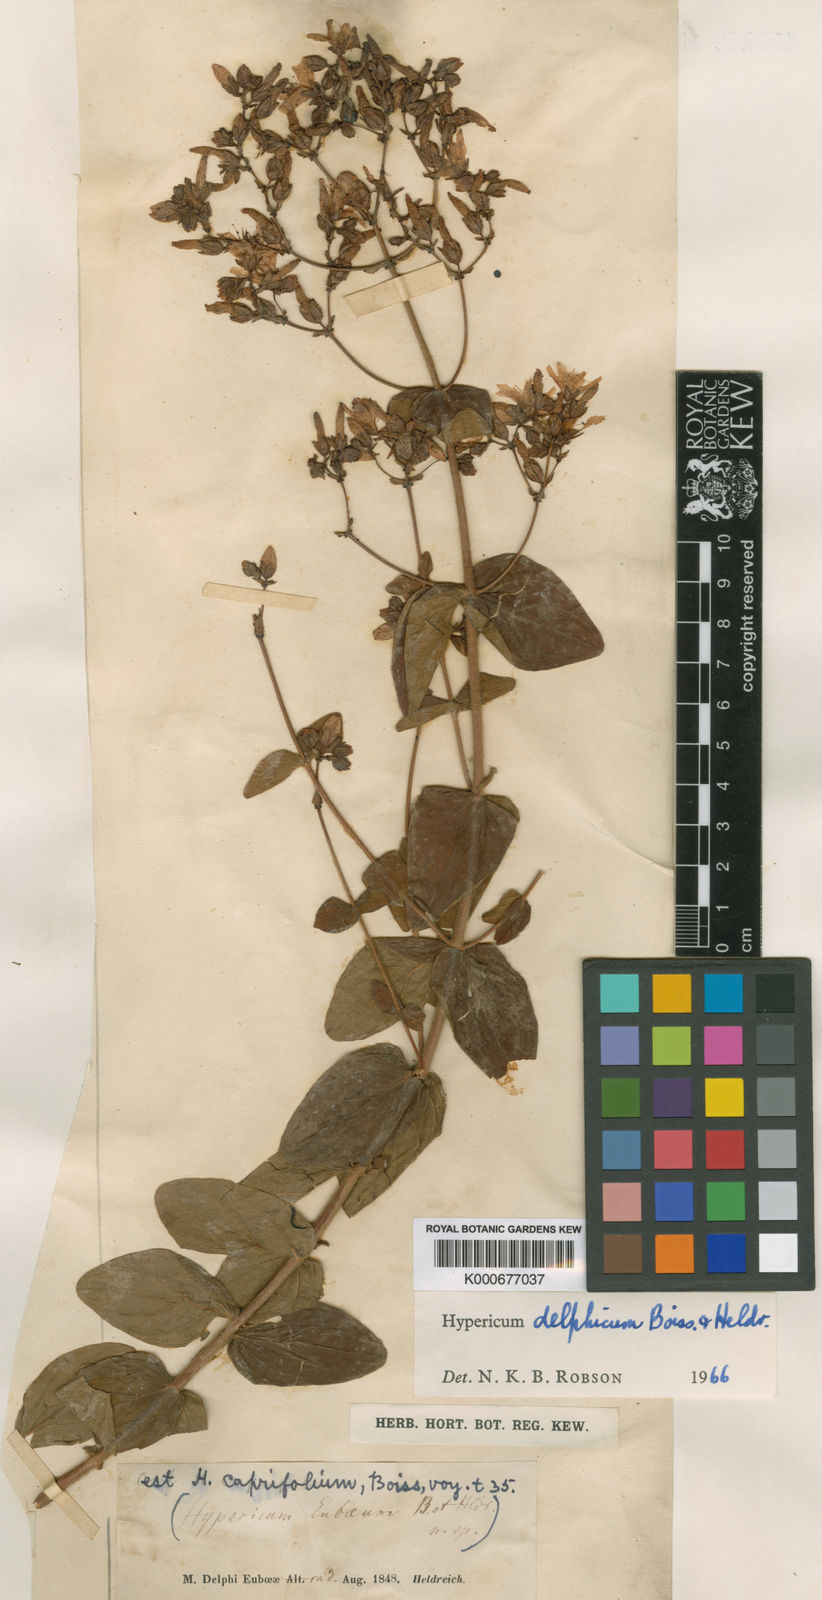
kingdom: Plantae
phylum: Tracheophyta
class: Magnoliopsida
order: Malpighiales
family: Hypericaceae
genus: Hypericum
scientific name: Hypericum delphicum
